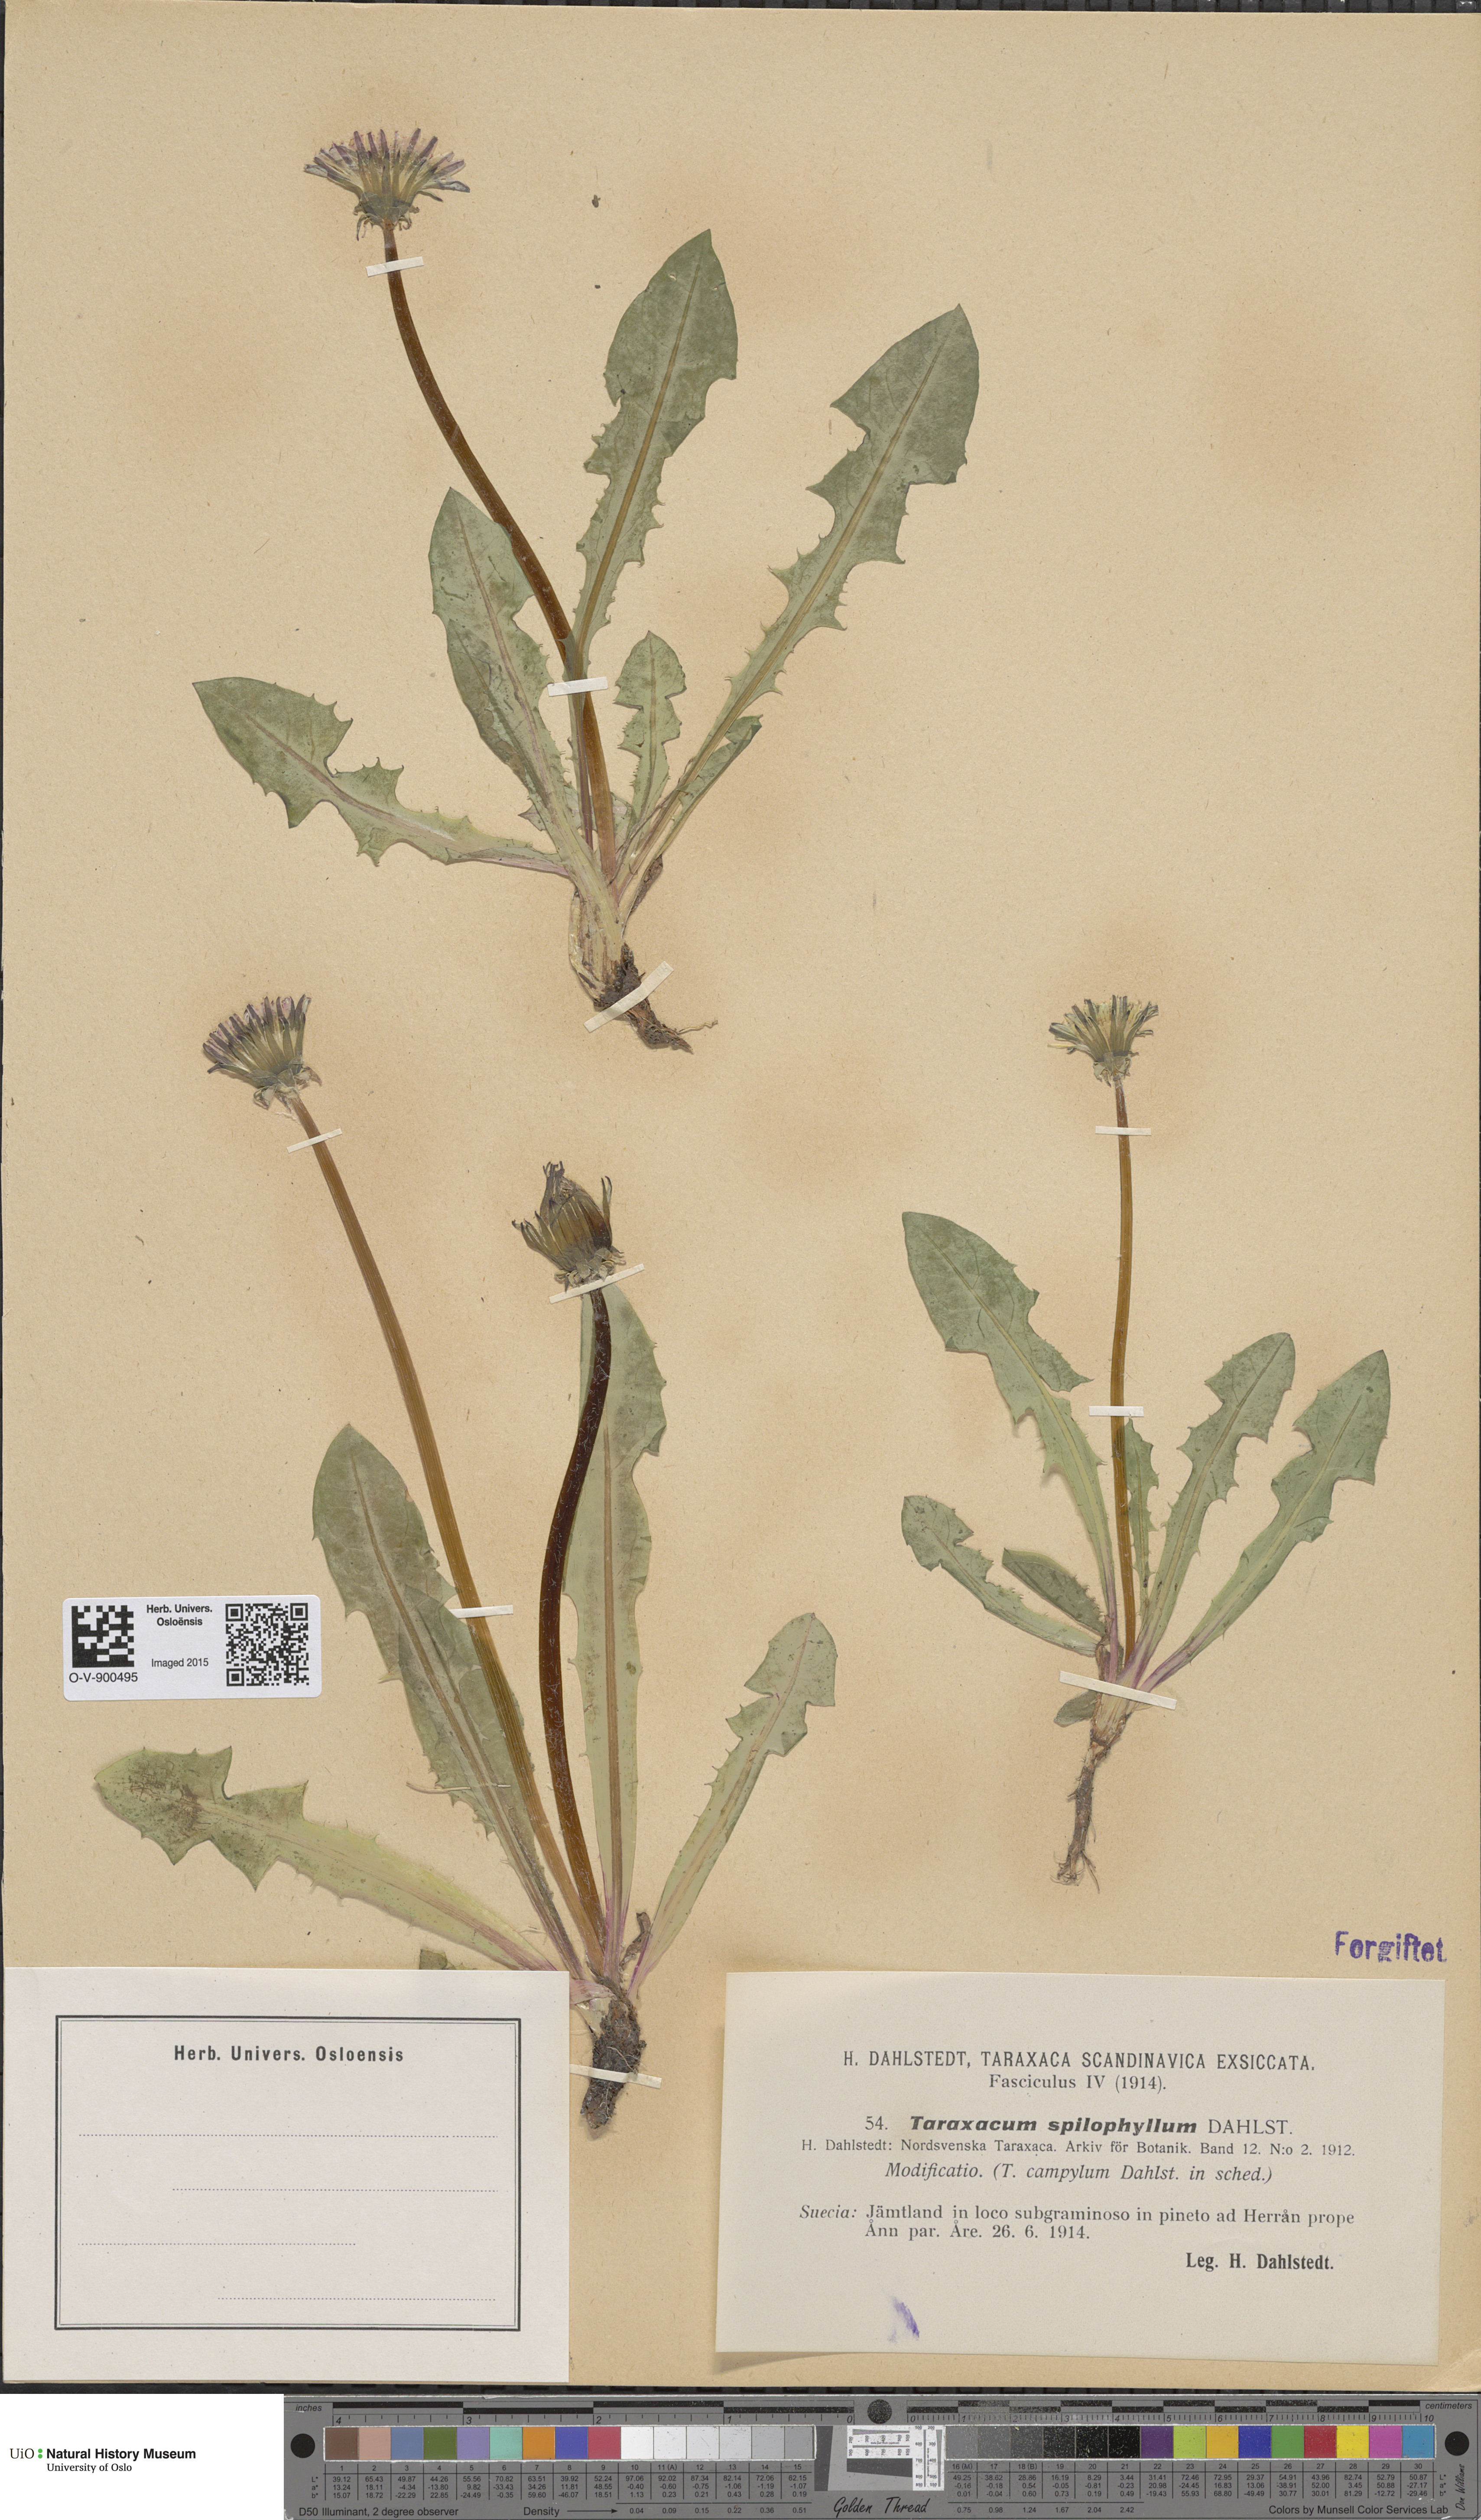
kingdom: Plantae
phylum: Tracheophyta
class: Magnoliopsida
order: Asterales
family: Asteraceae
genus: Taraxacum
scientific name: Taraxacum spilophyllum
